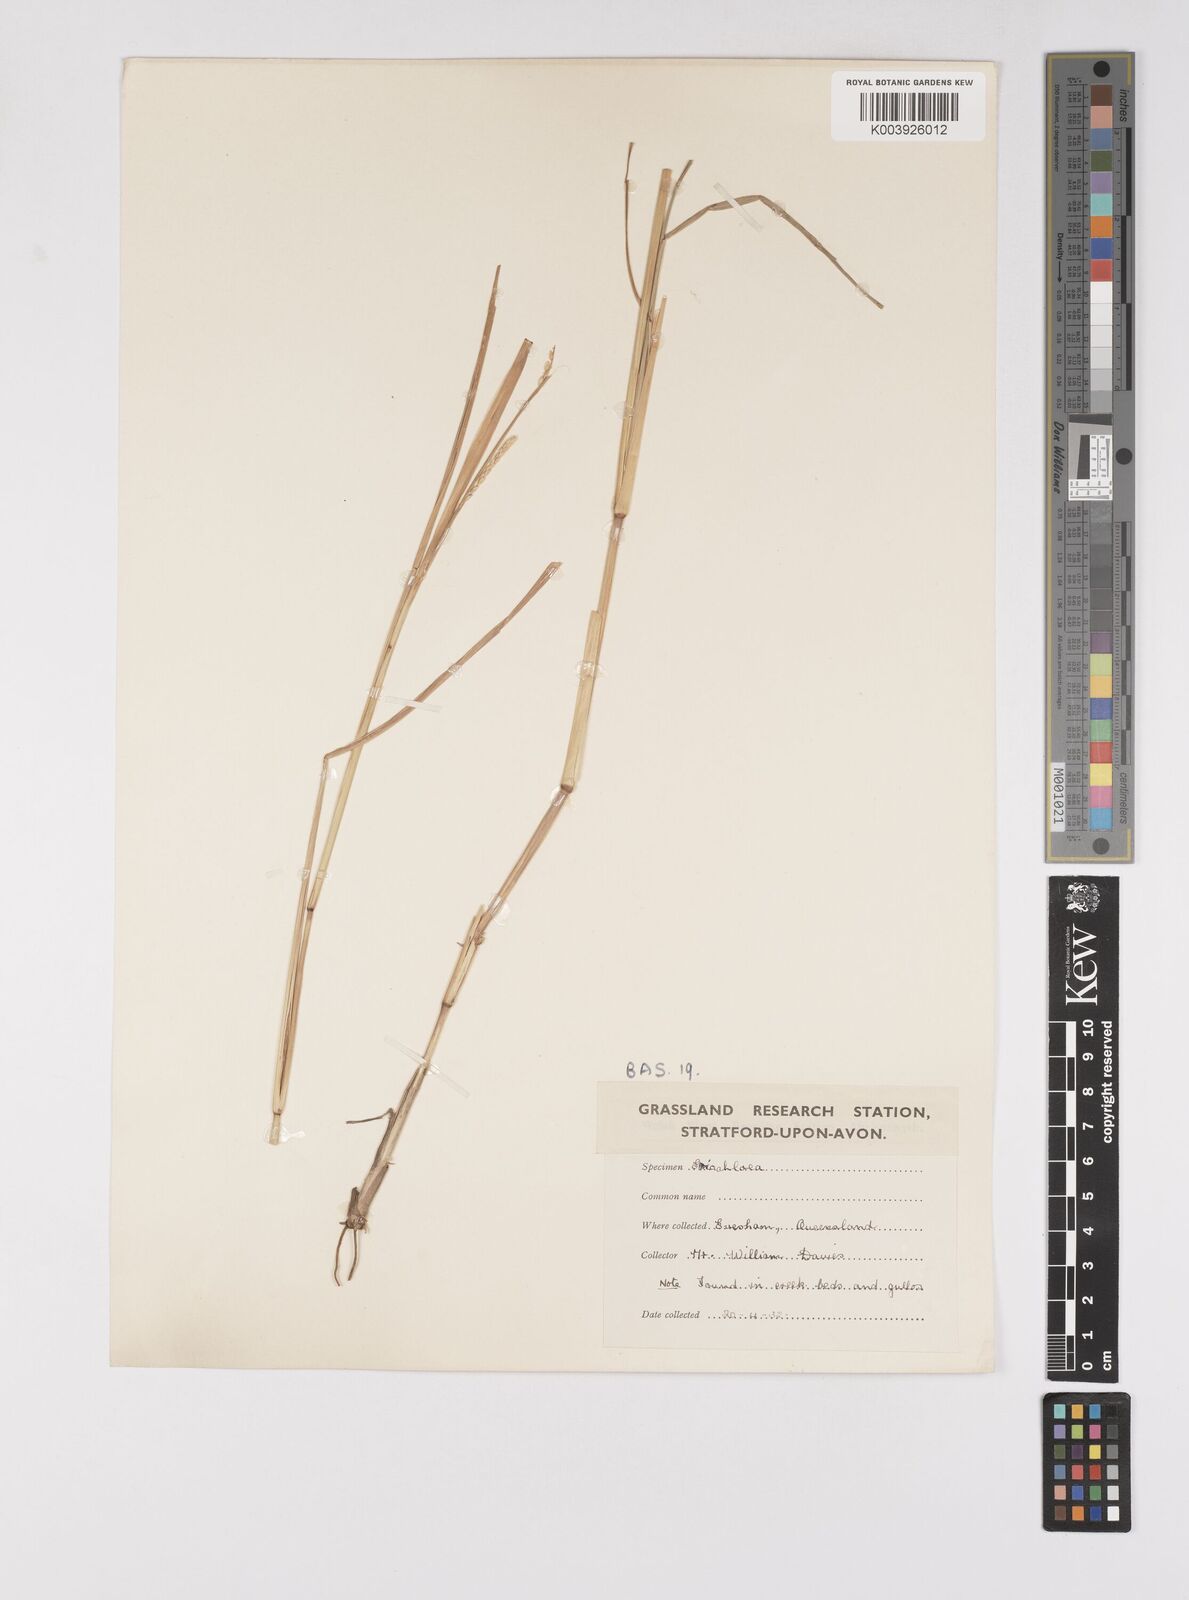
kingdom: Plantae
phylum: Tracheophyta
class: Liliopsida
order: Poales
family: Poaceae
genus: Eriochloa
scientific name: Eriochloa
